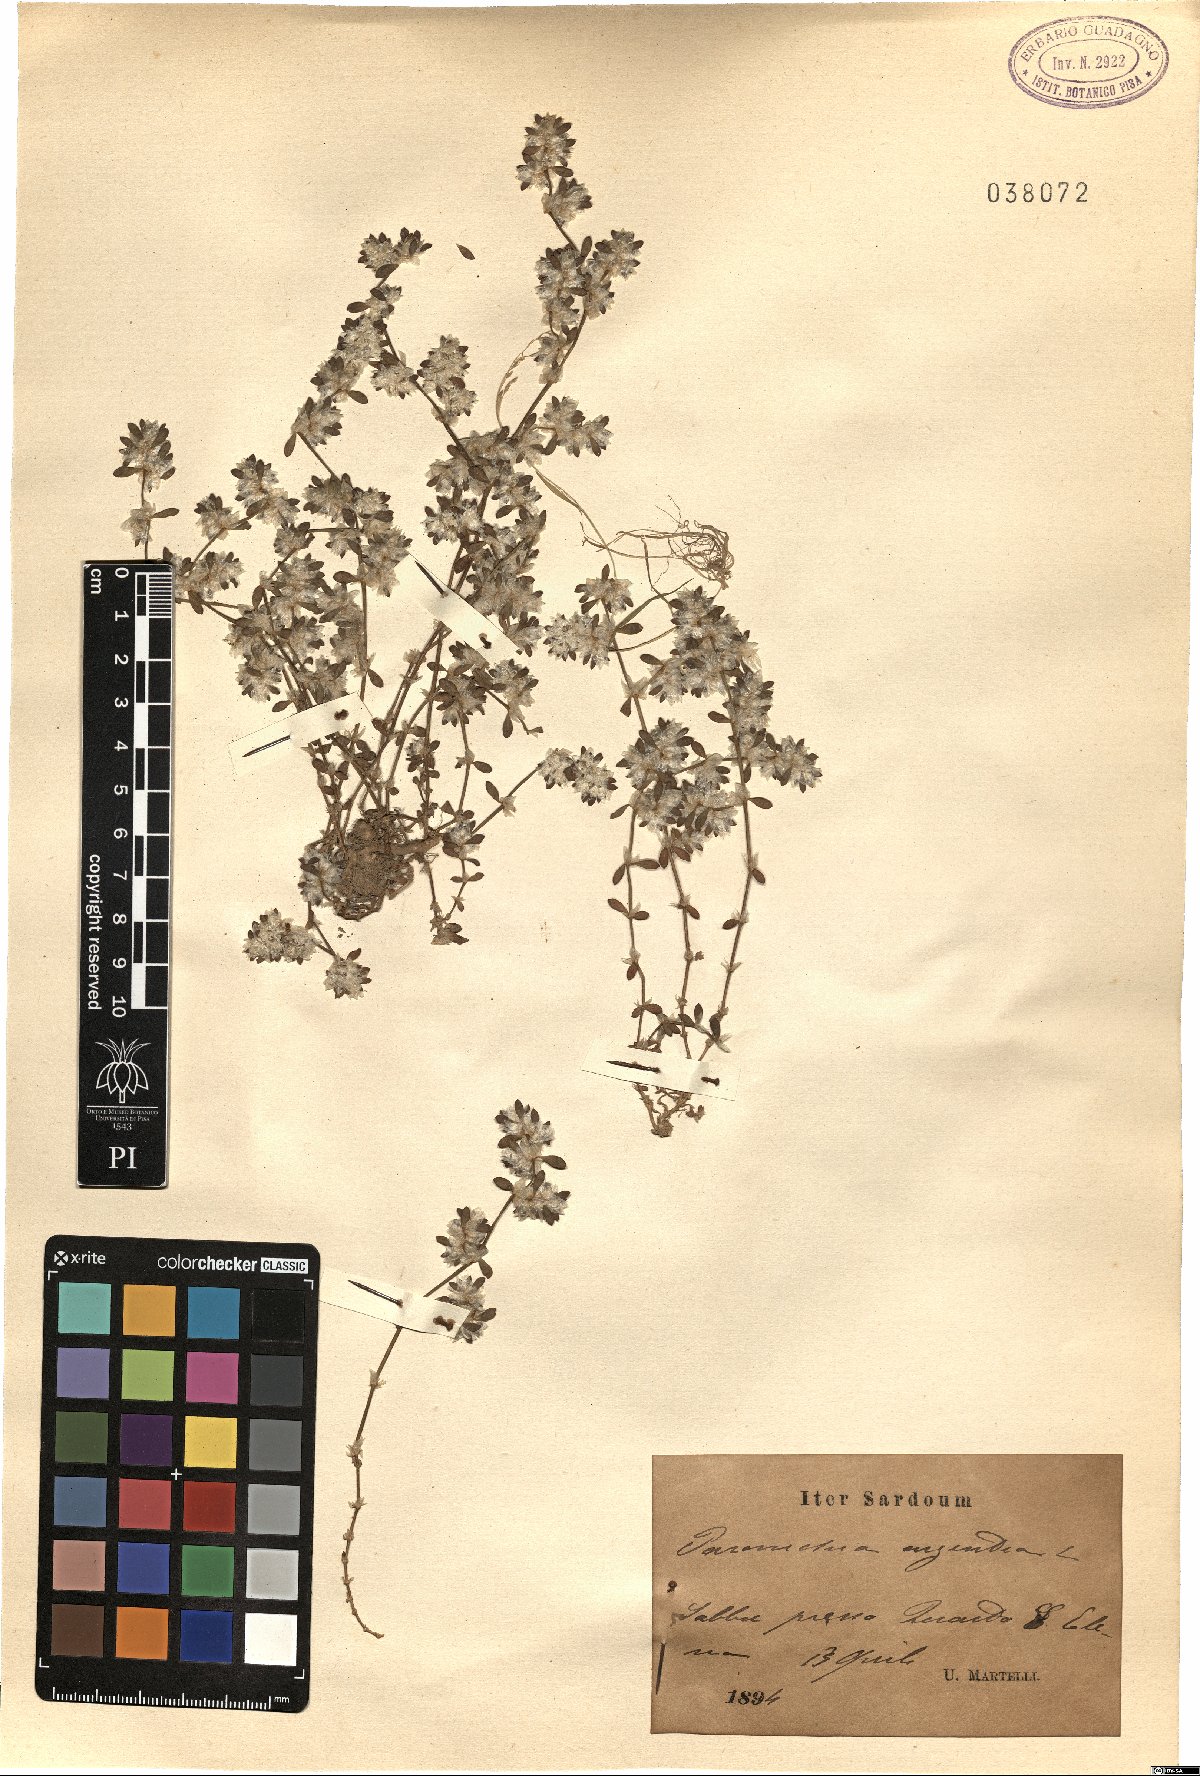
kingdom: Plantae
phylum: Tracheophyta
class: Magnoliopsida
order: Caryophyllales
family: Caryophyllaceae
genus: Paronychia
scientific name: Paronychia argentea
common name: Silver nailroot
